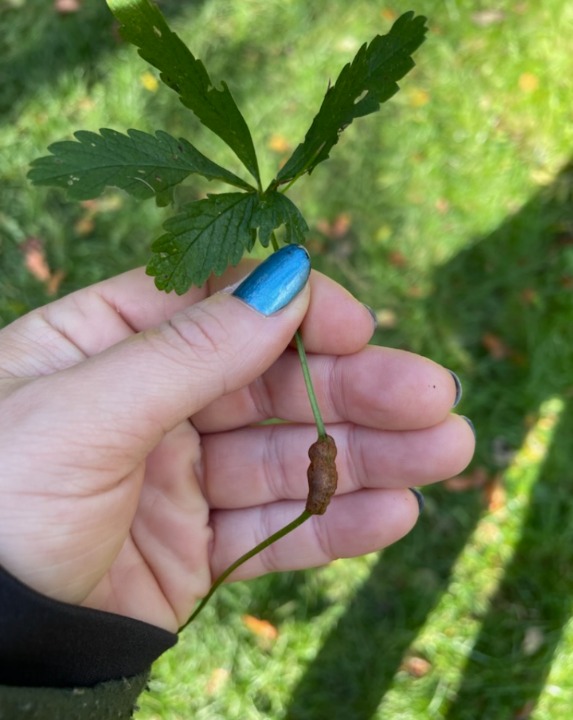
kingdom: Animalia
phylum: Arthropoda
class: Insecta
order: Hymenoptera
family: Cynipidae
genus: Xestophanes
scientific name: Xestophanes potentillae
